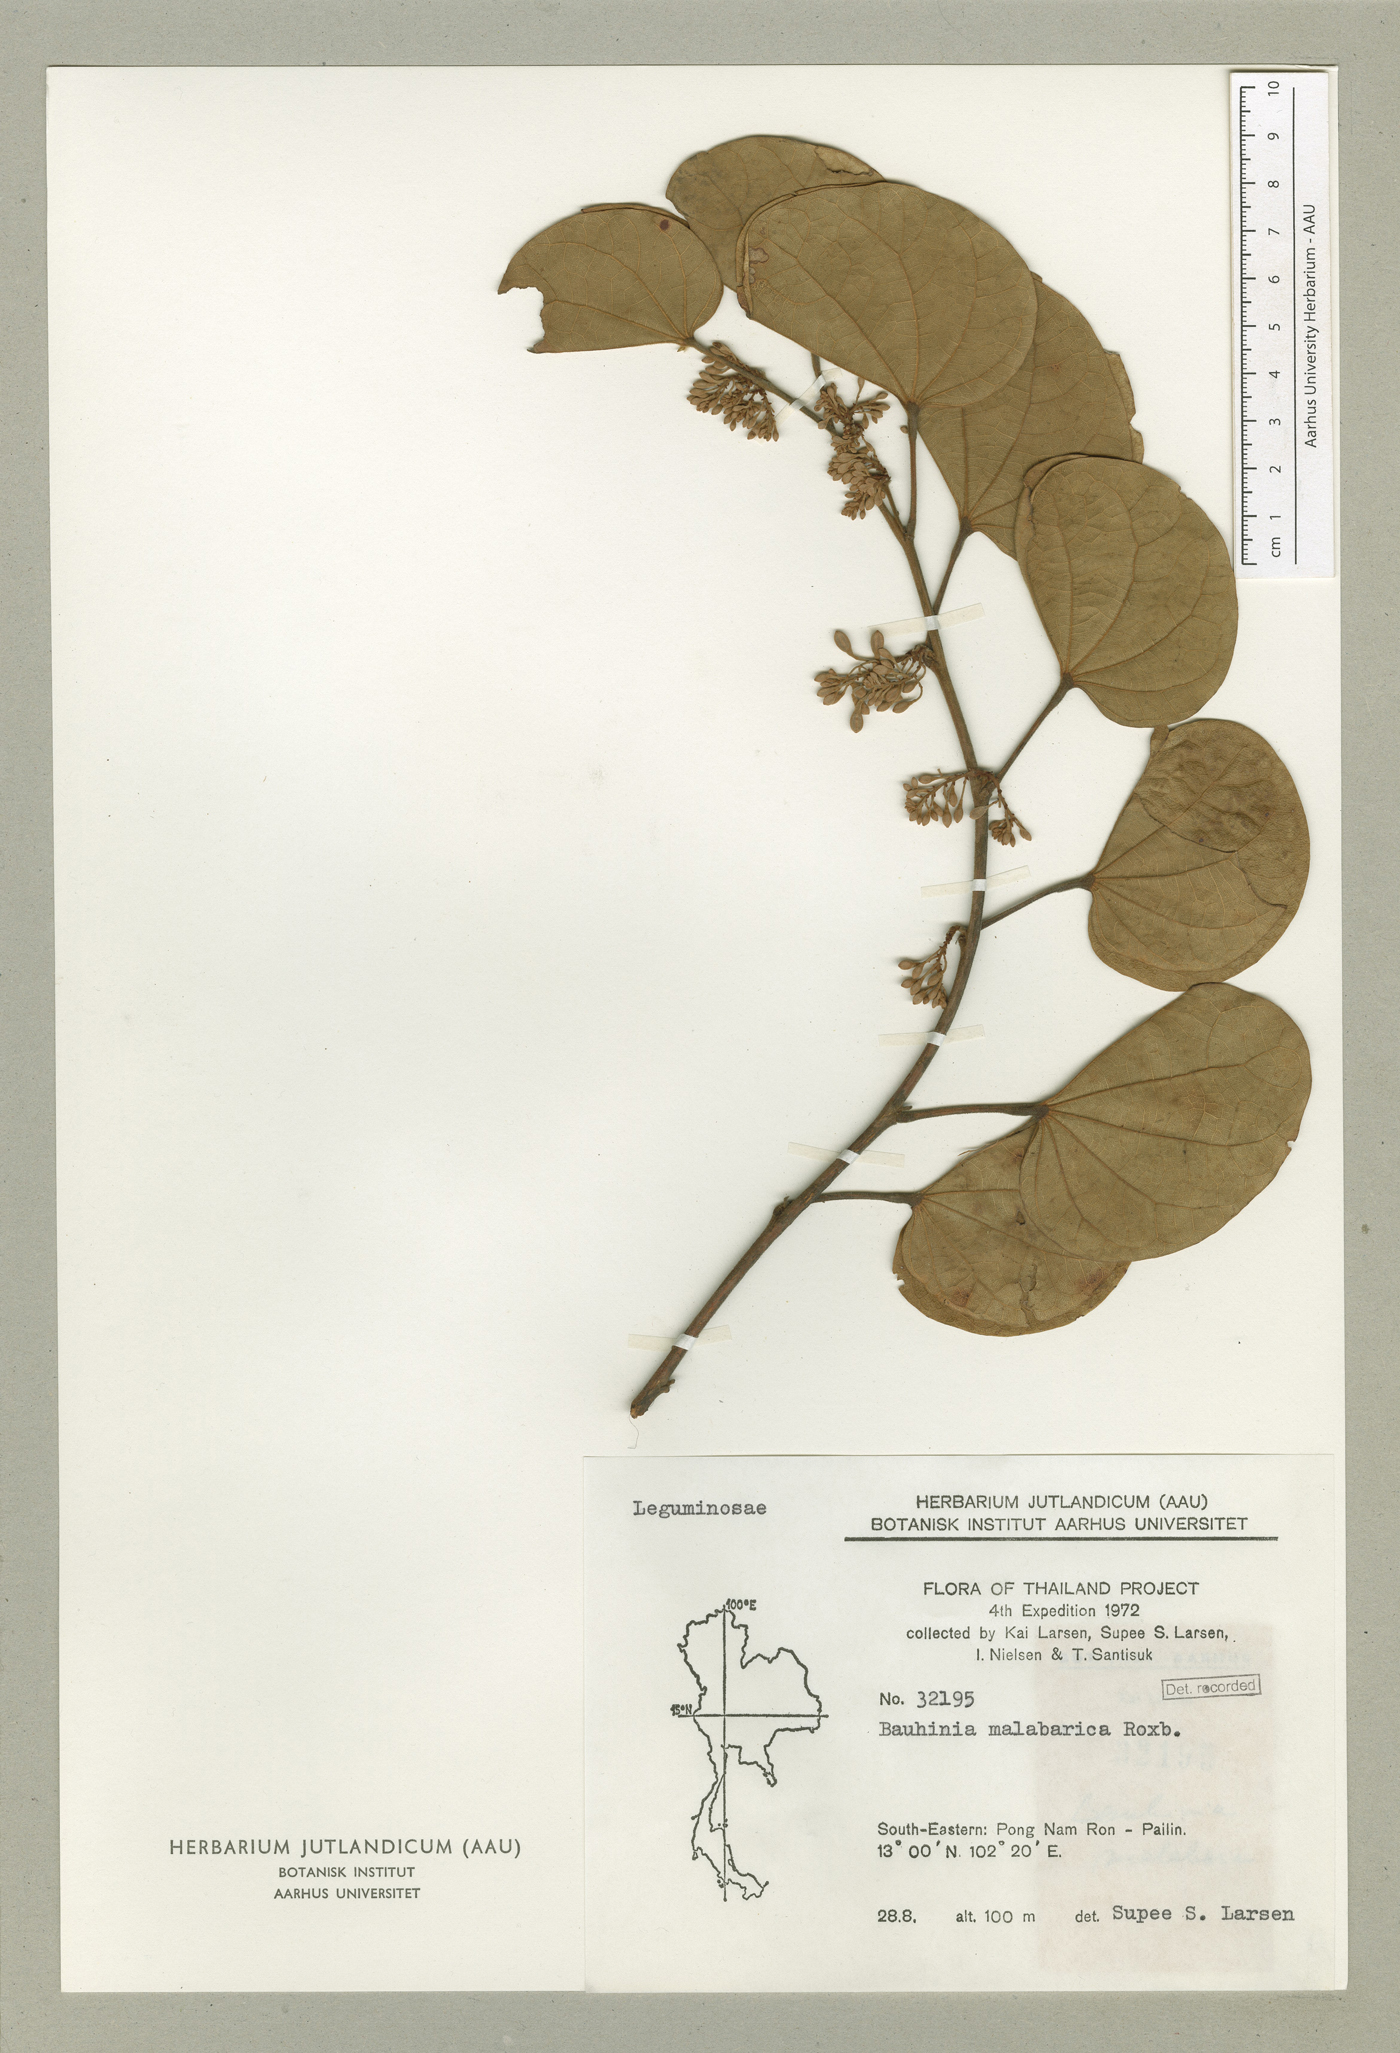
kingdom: Plantae
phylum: Tracheophyta
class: Magnoliopsida
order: Fabales
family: Fabaceae
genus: Piliostigma
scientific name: Piliostigma malabaricum
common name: Malabar bauhinia
